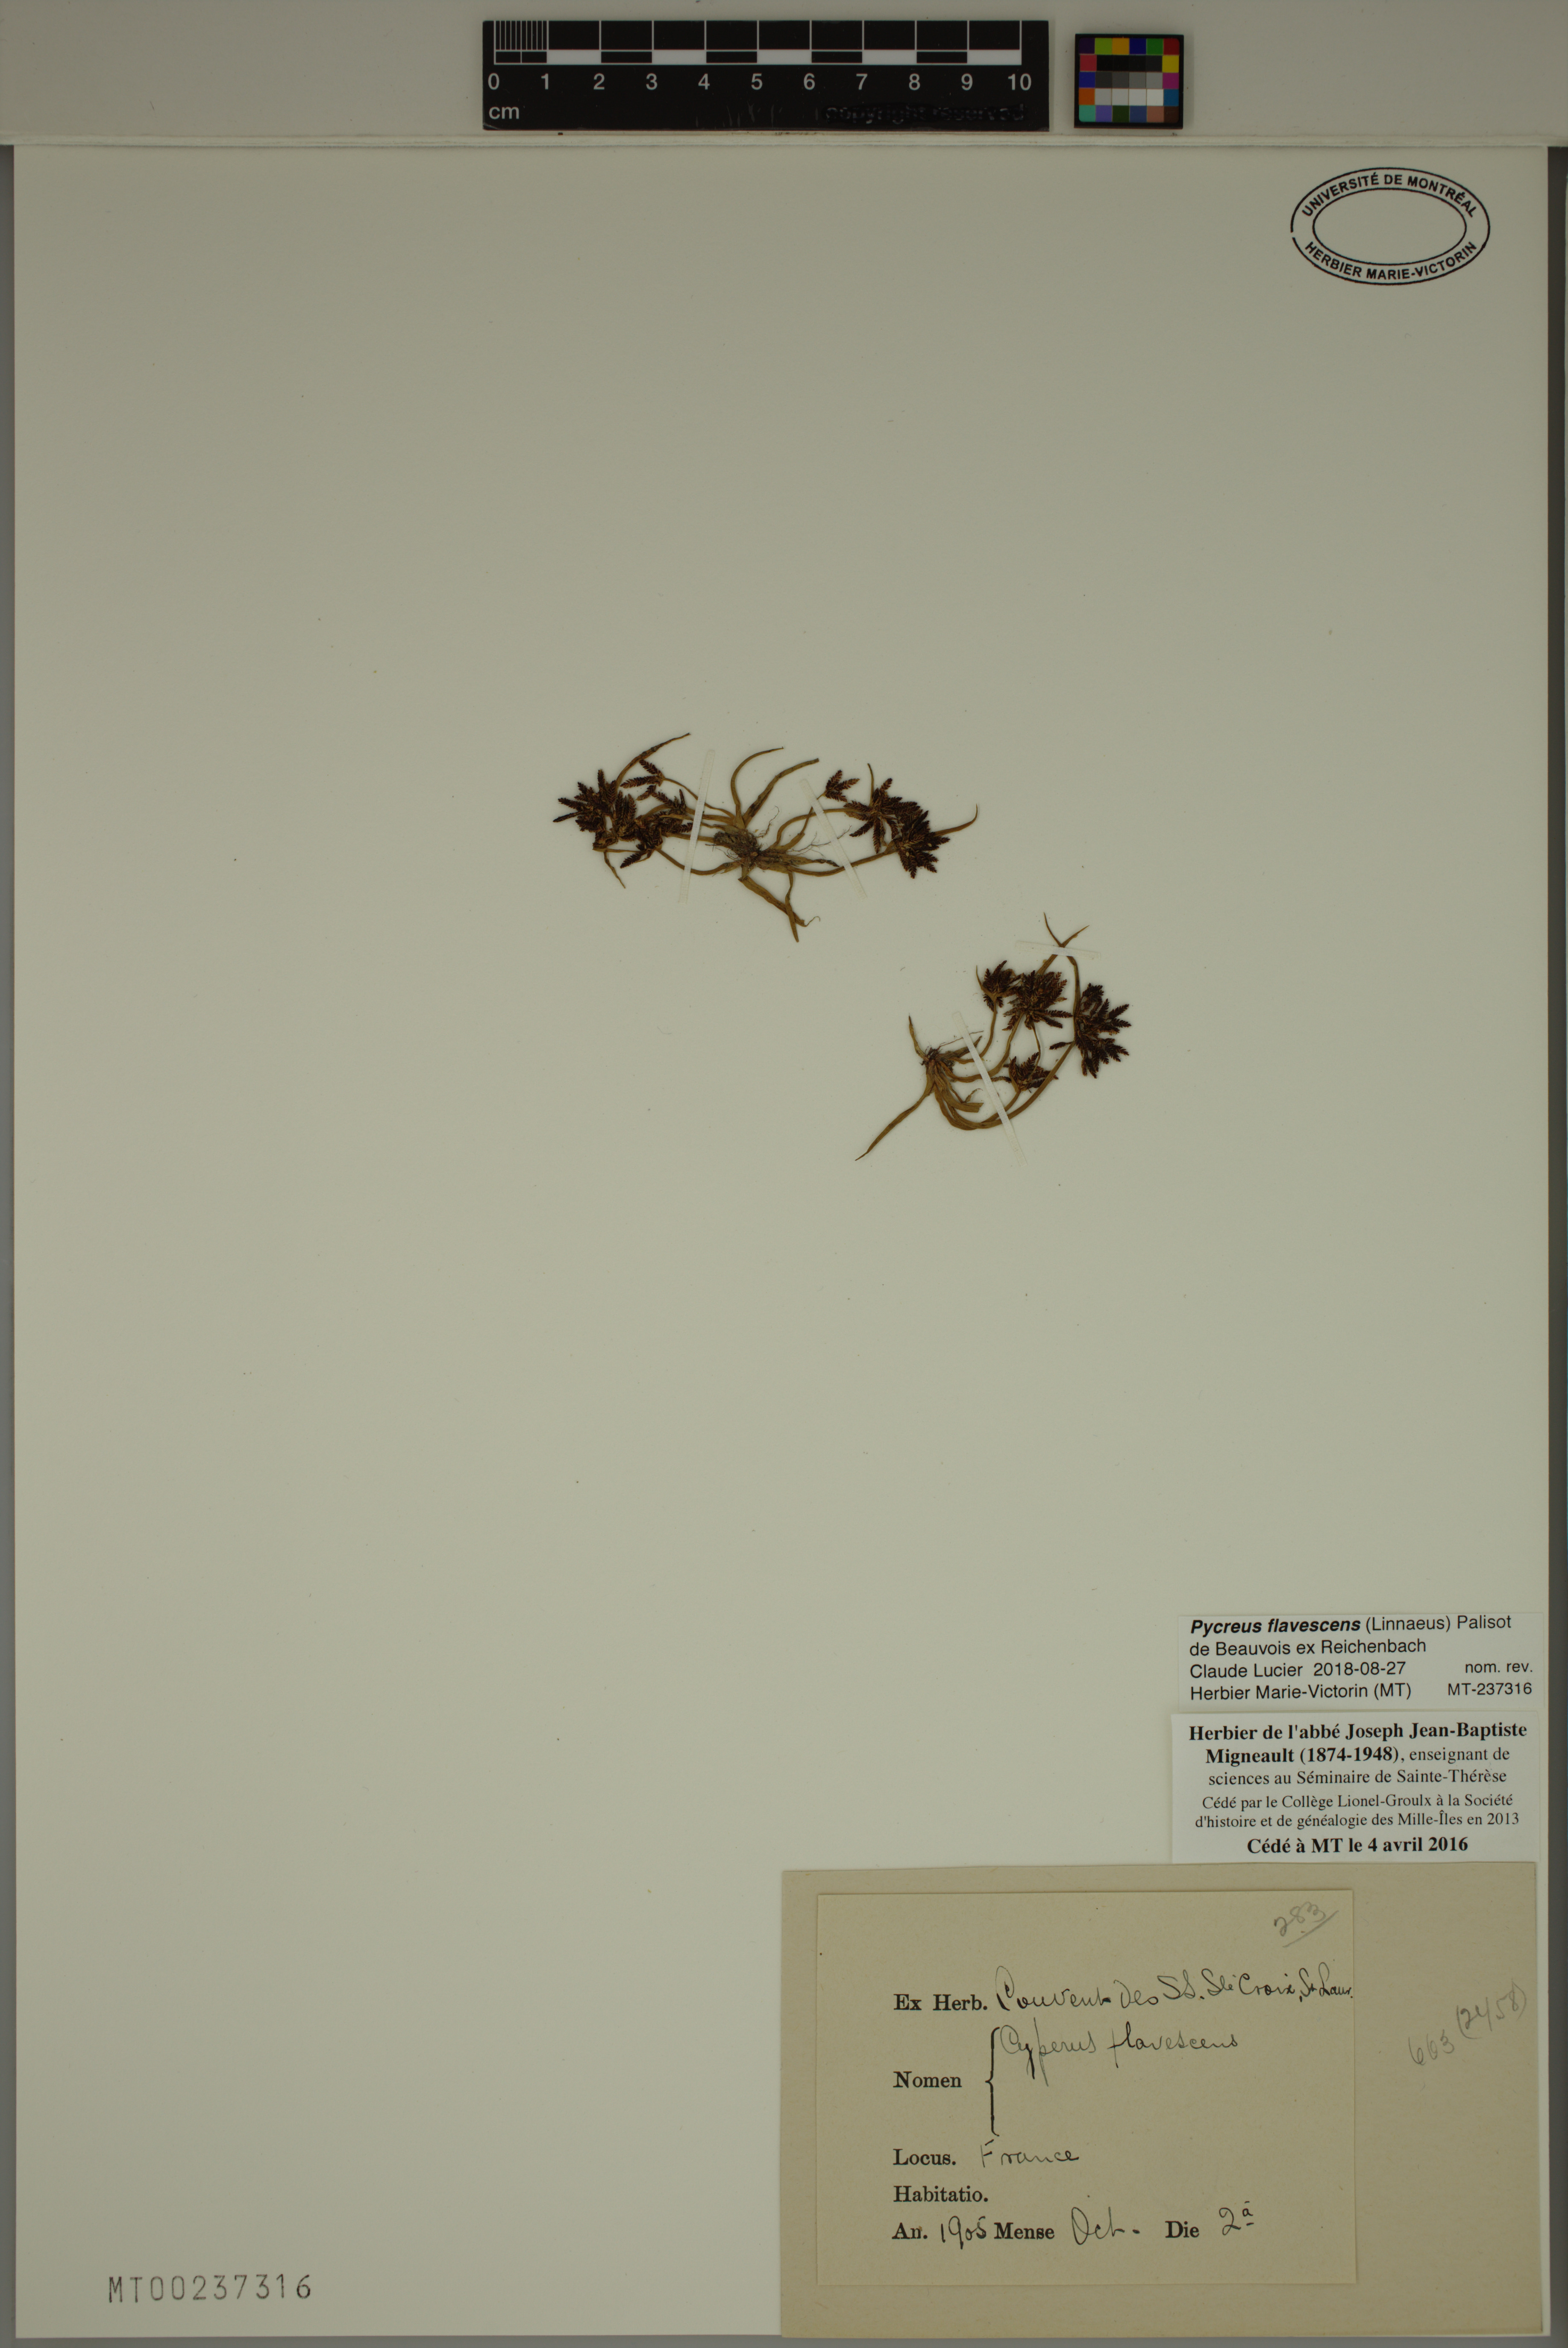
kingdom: Plantae
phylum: Tracheophyta
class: Liliopsida
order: Poales
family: Cyperaceae
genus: Cyperus
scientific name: Cyperus flavescens
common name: Yellow galingale
